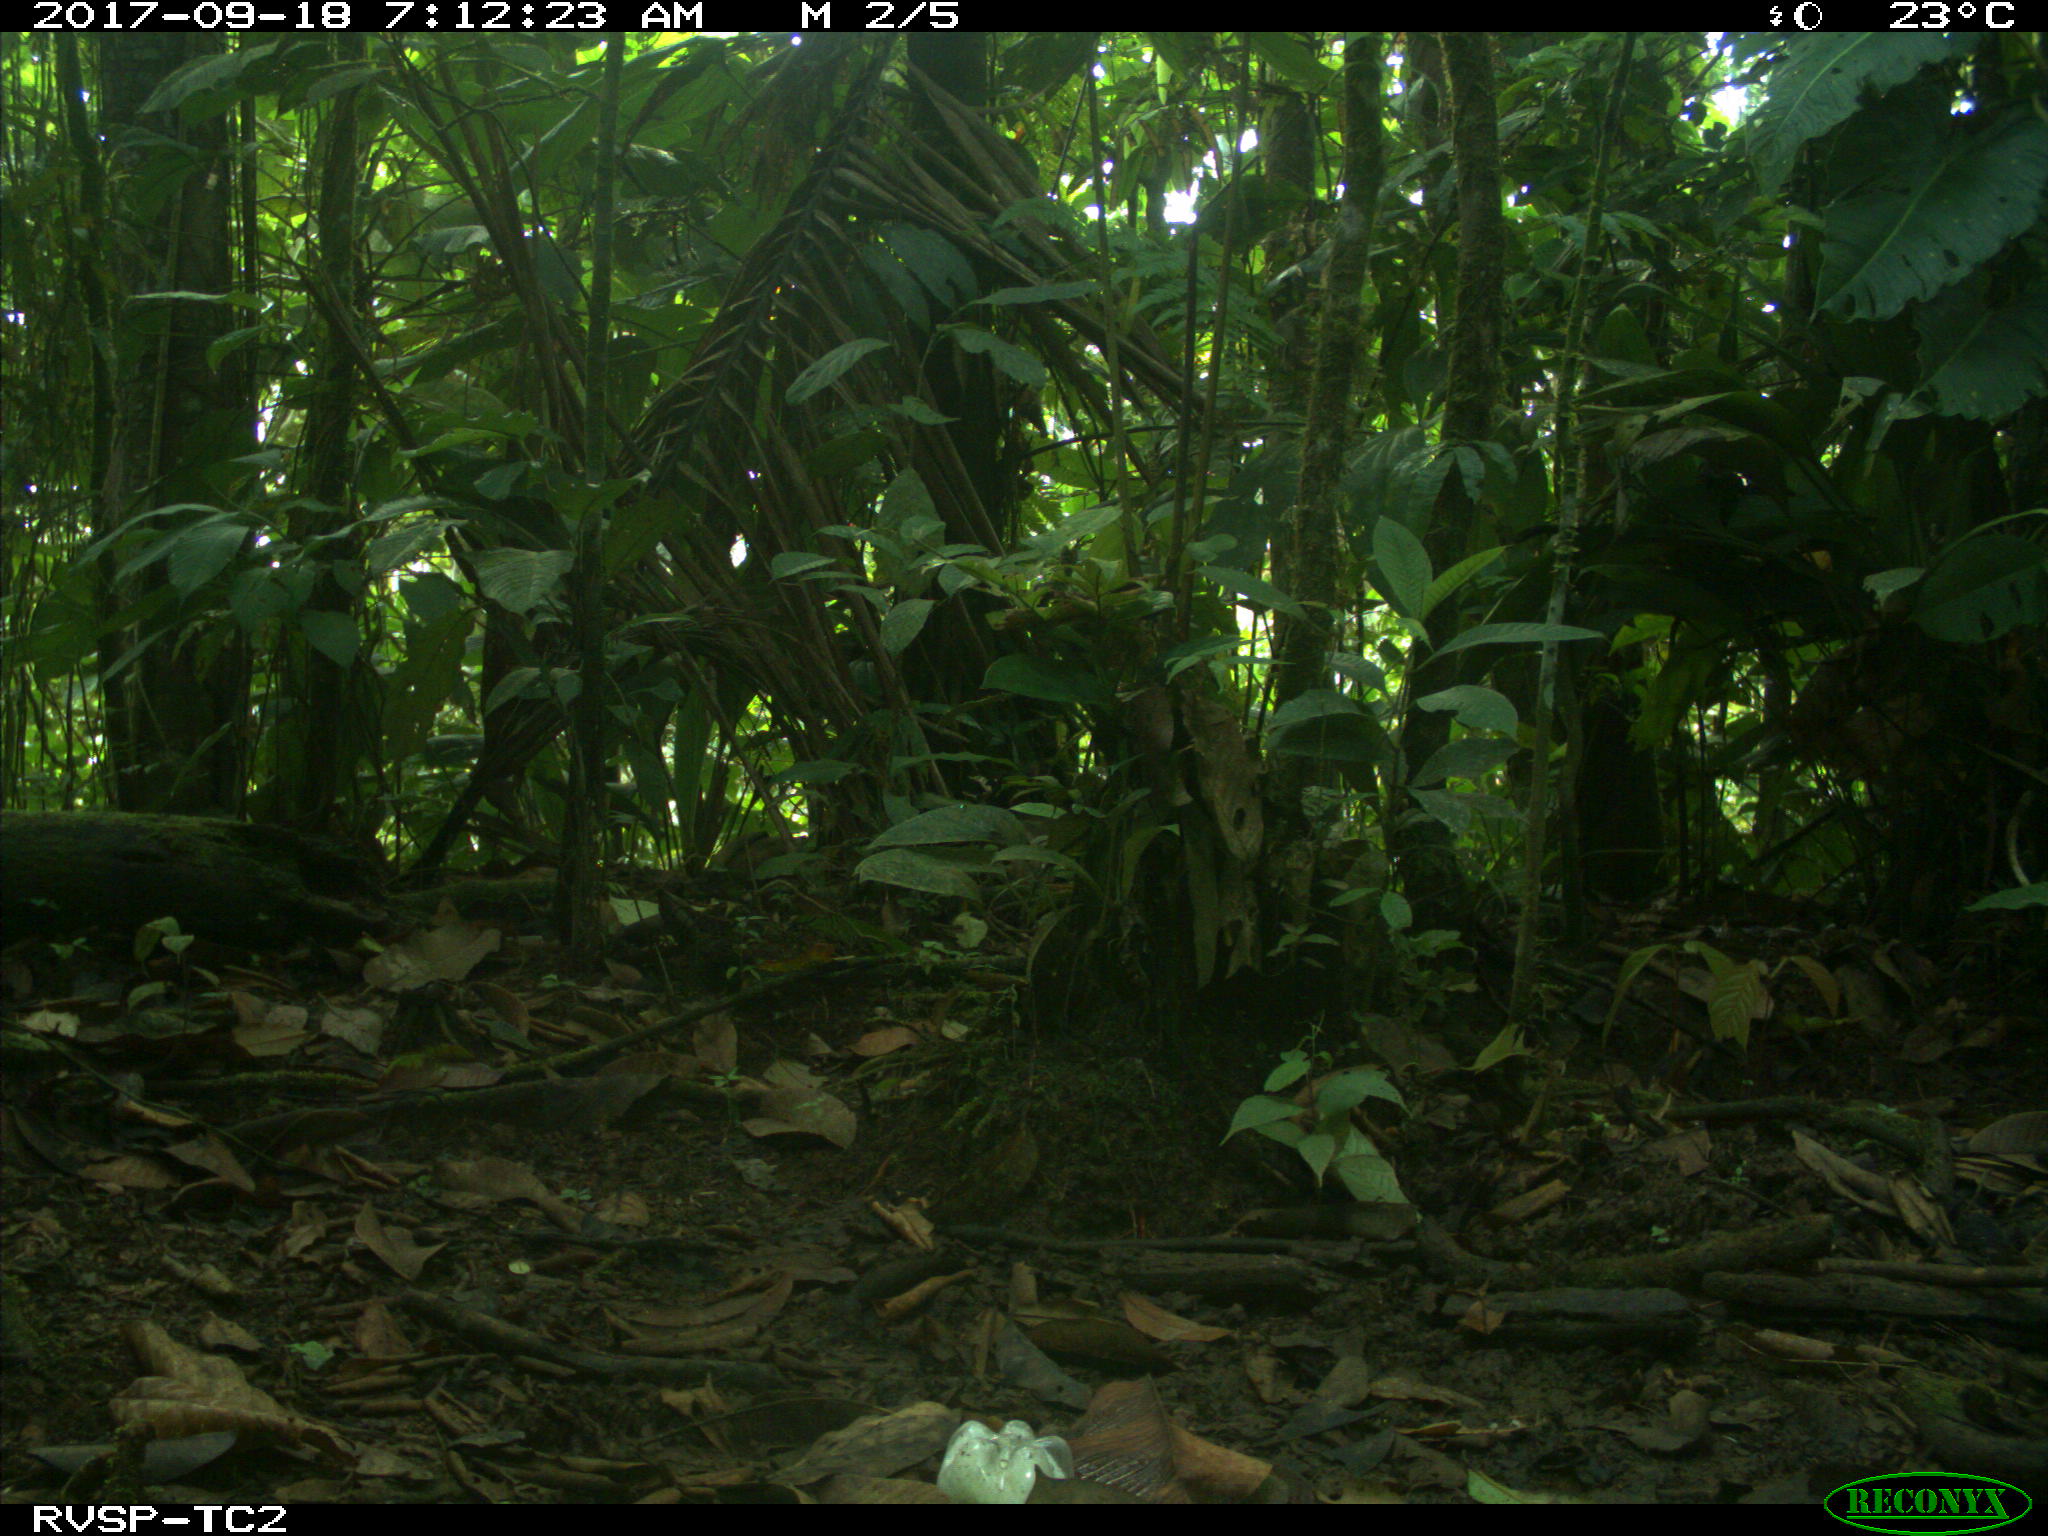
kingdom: Animalia
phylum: Chordata
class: Mammalia
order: Rodentia
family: Dasyproctidae
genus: Dasyprocta
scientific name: Dasyprocta punctata
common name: Central american agouti
